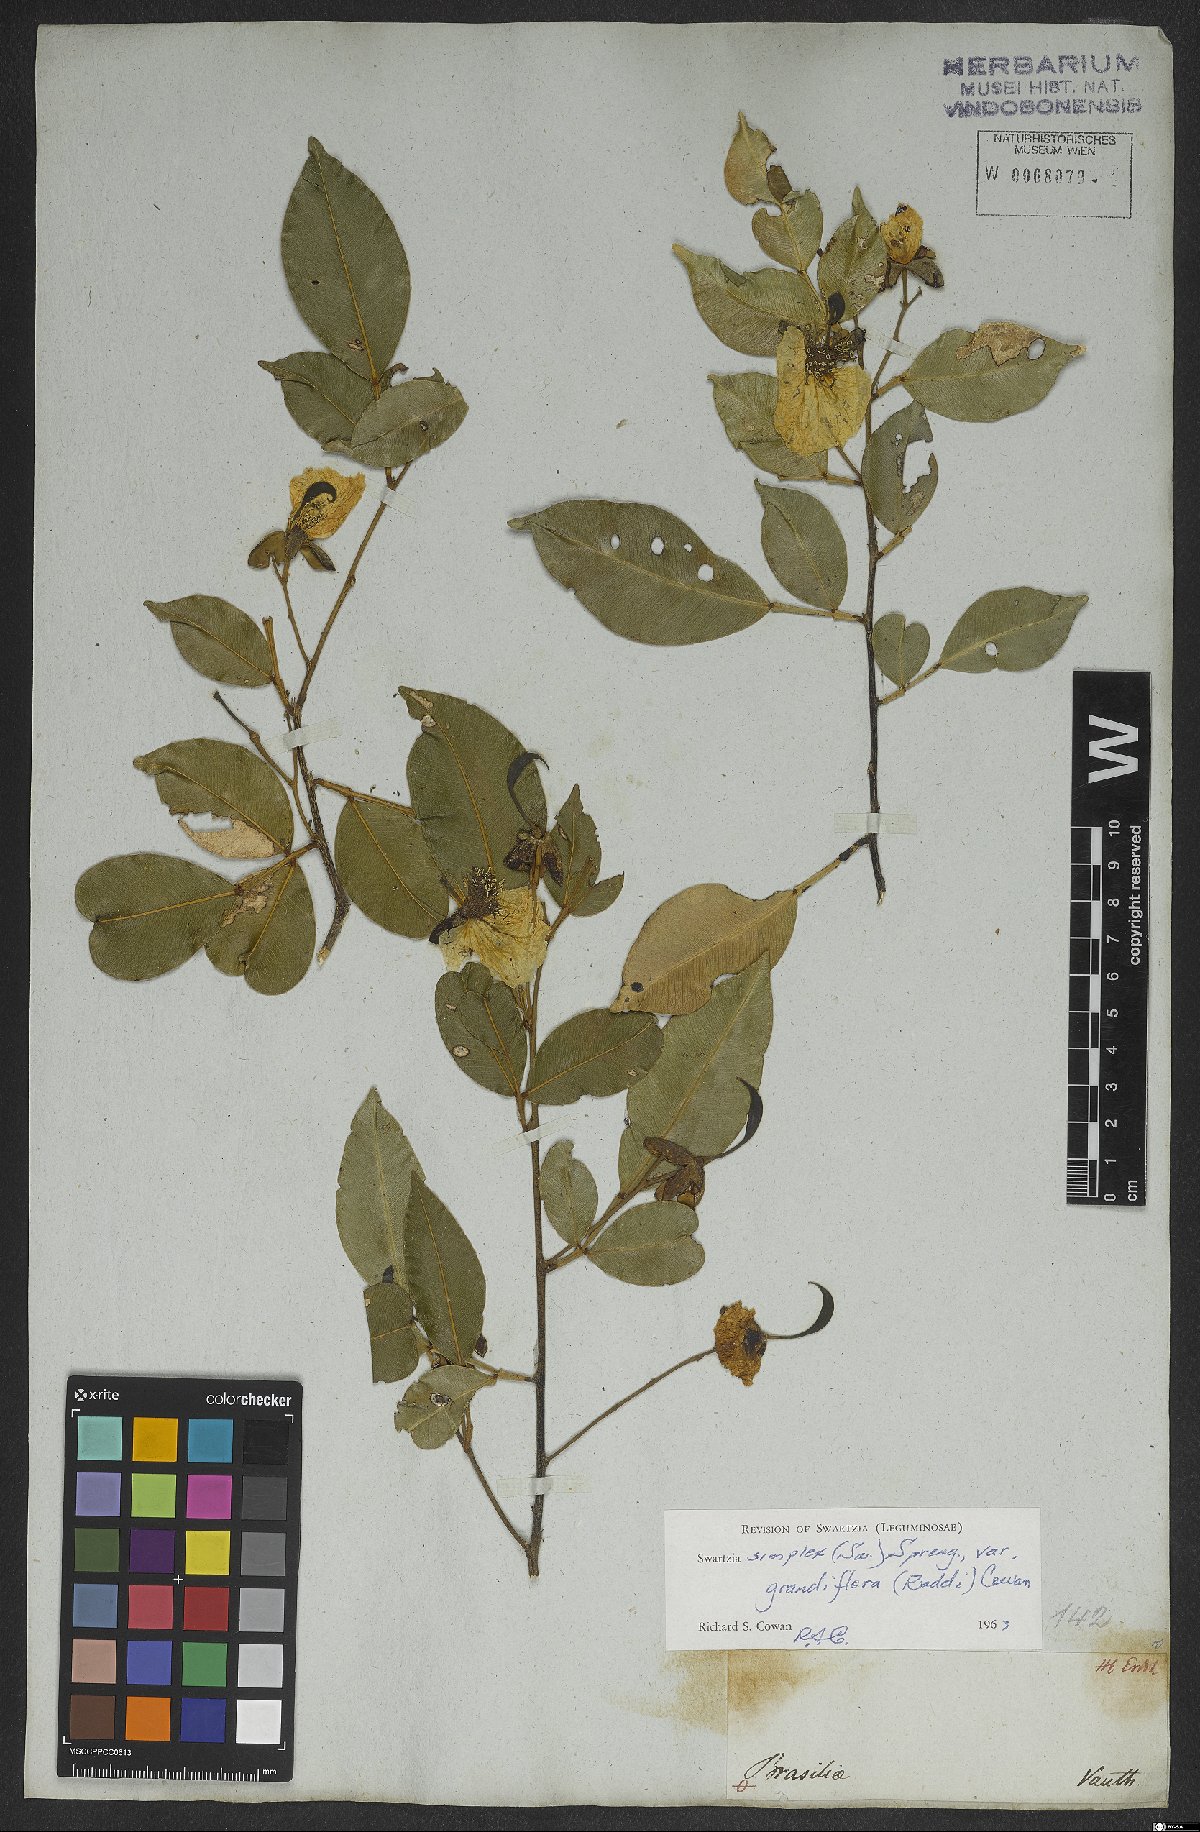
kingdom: Plantae
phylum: Tracheophyta
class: Magnoliopsida
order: Fabales
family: Fabaceae
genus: Swartzia
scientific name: Swartzia simplex
